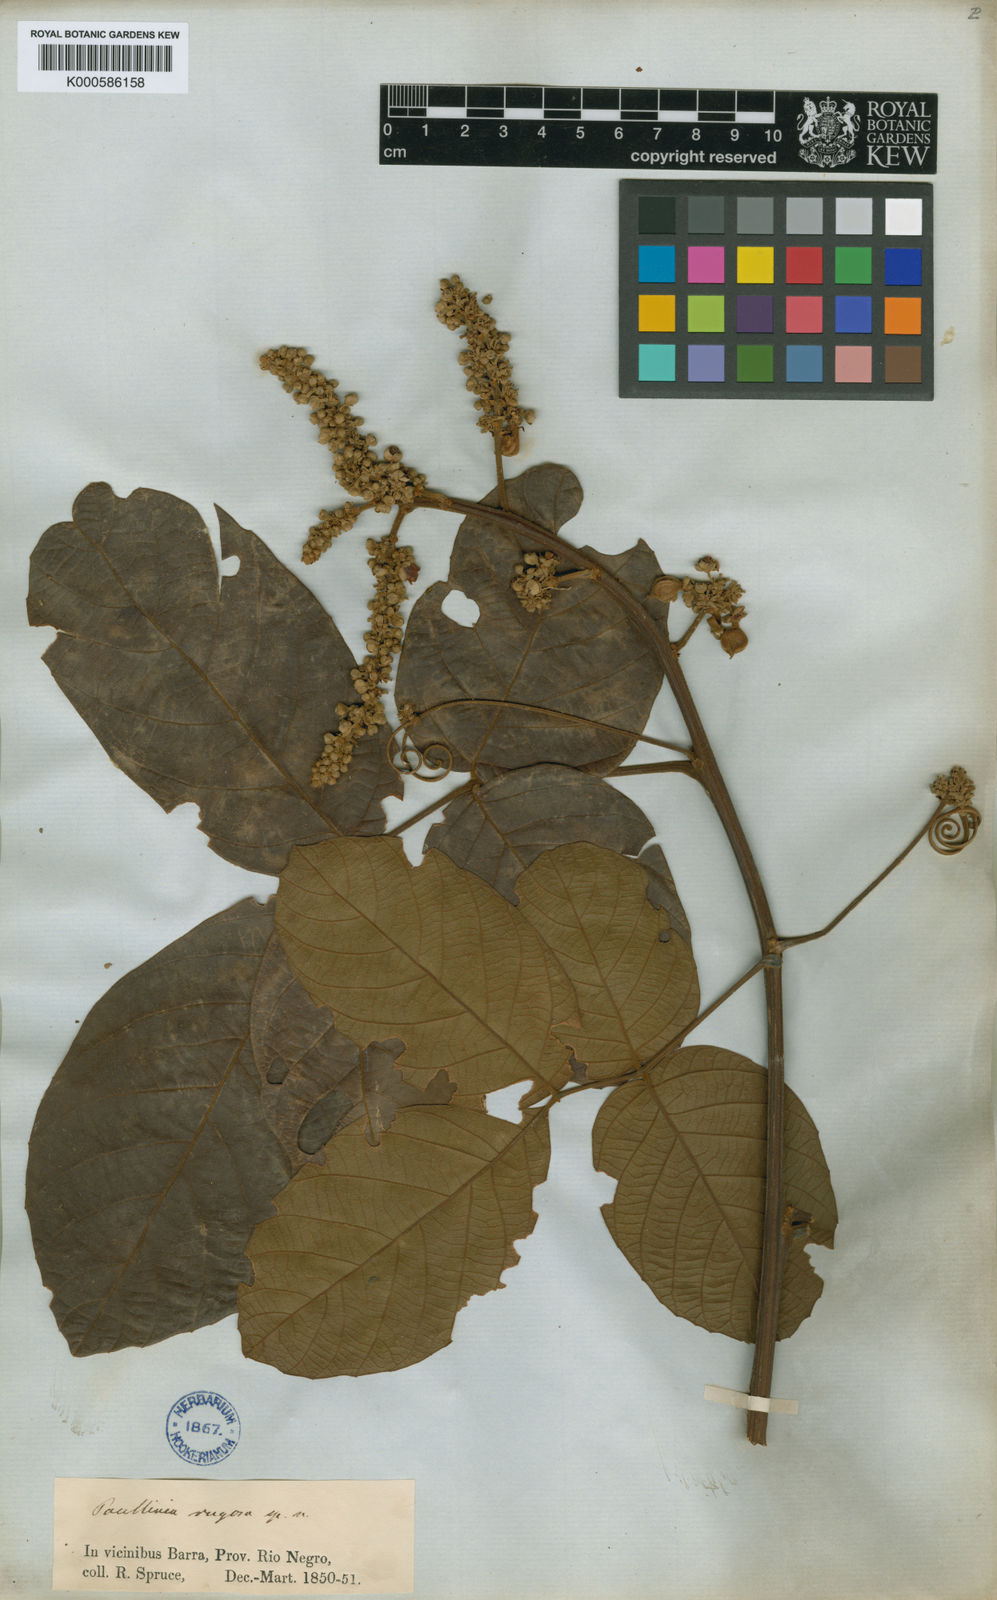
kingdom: Plantae
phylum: Tracheophyta
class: Magnoliopsida
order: Sapindales
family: Sapindaceae
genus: Paullinia
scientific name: Paullinia rugosa
